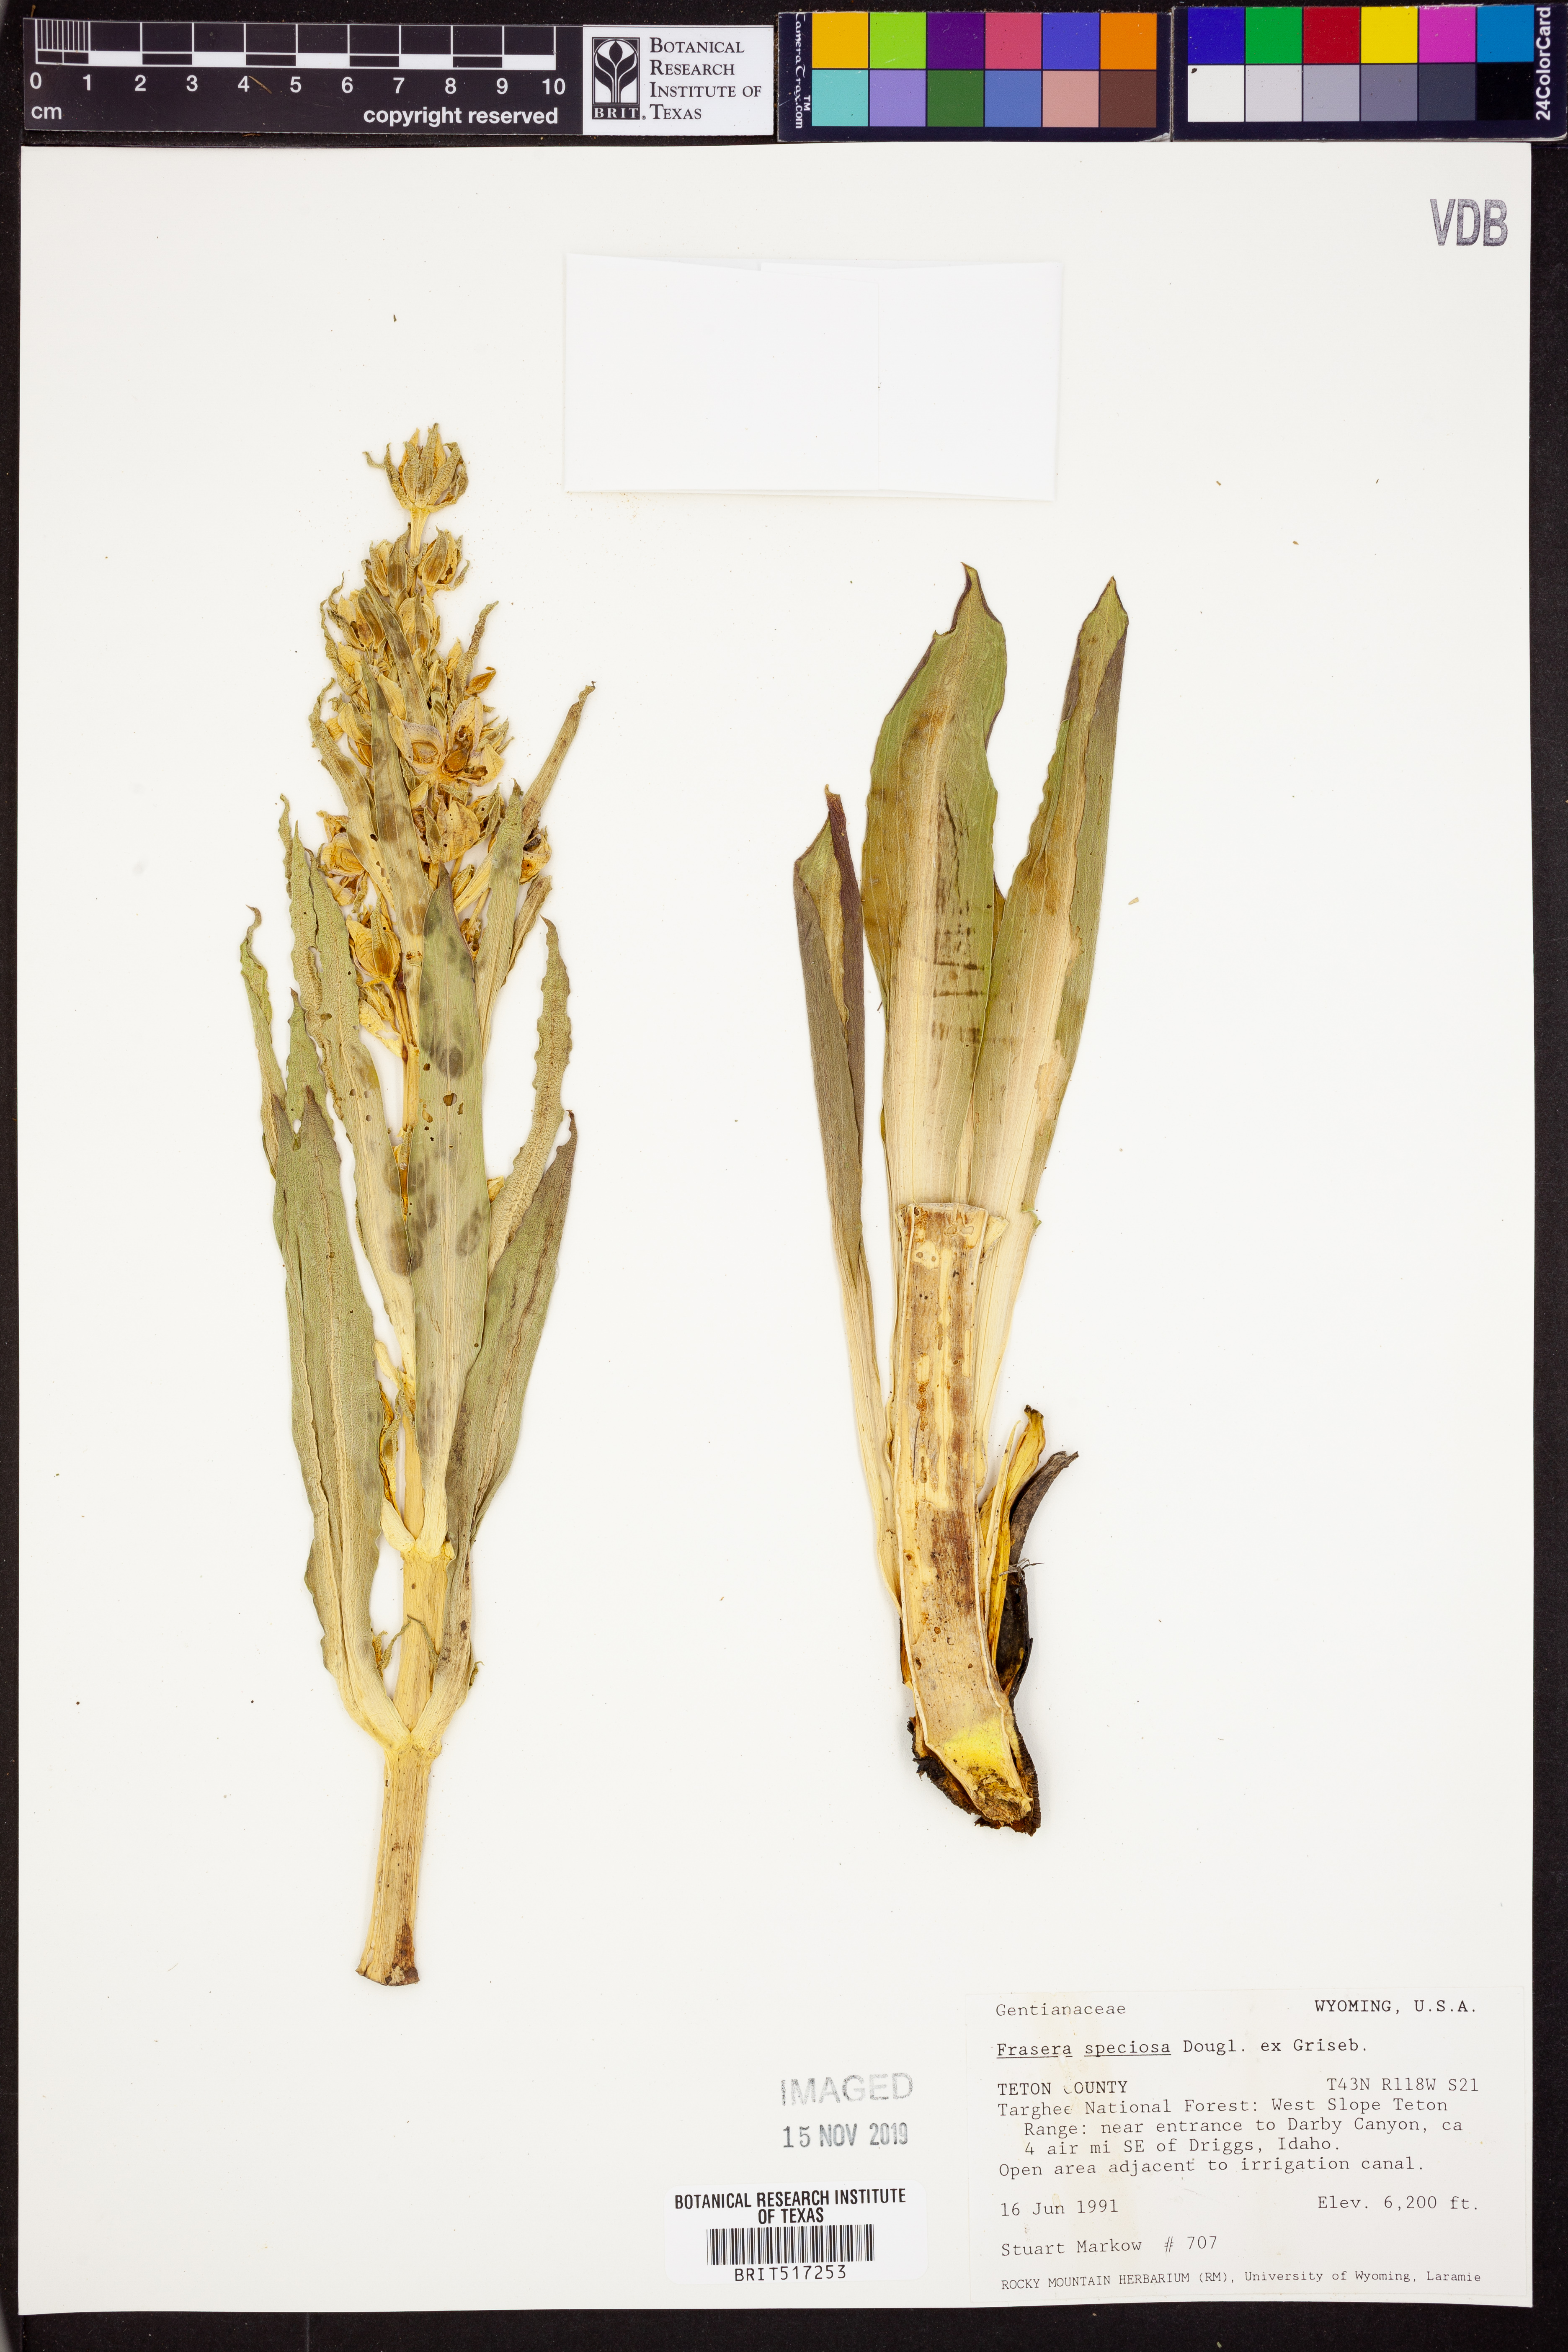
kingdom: Plantae
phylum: Tracheophyta
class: Magnoliopsida
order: Gentianales
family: Gentianaceae
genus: Frasera
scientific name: Frasera speciosa
